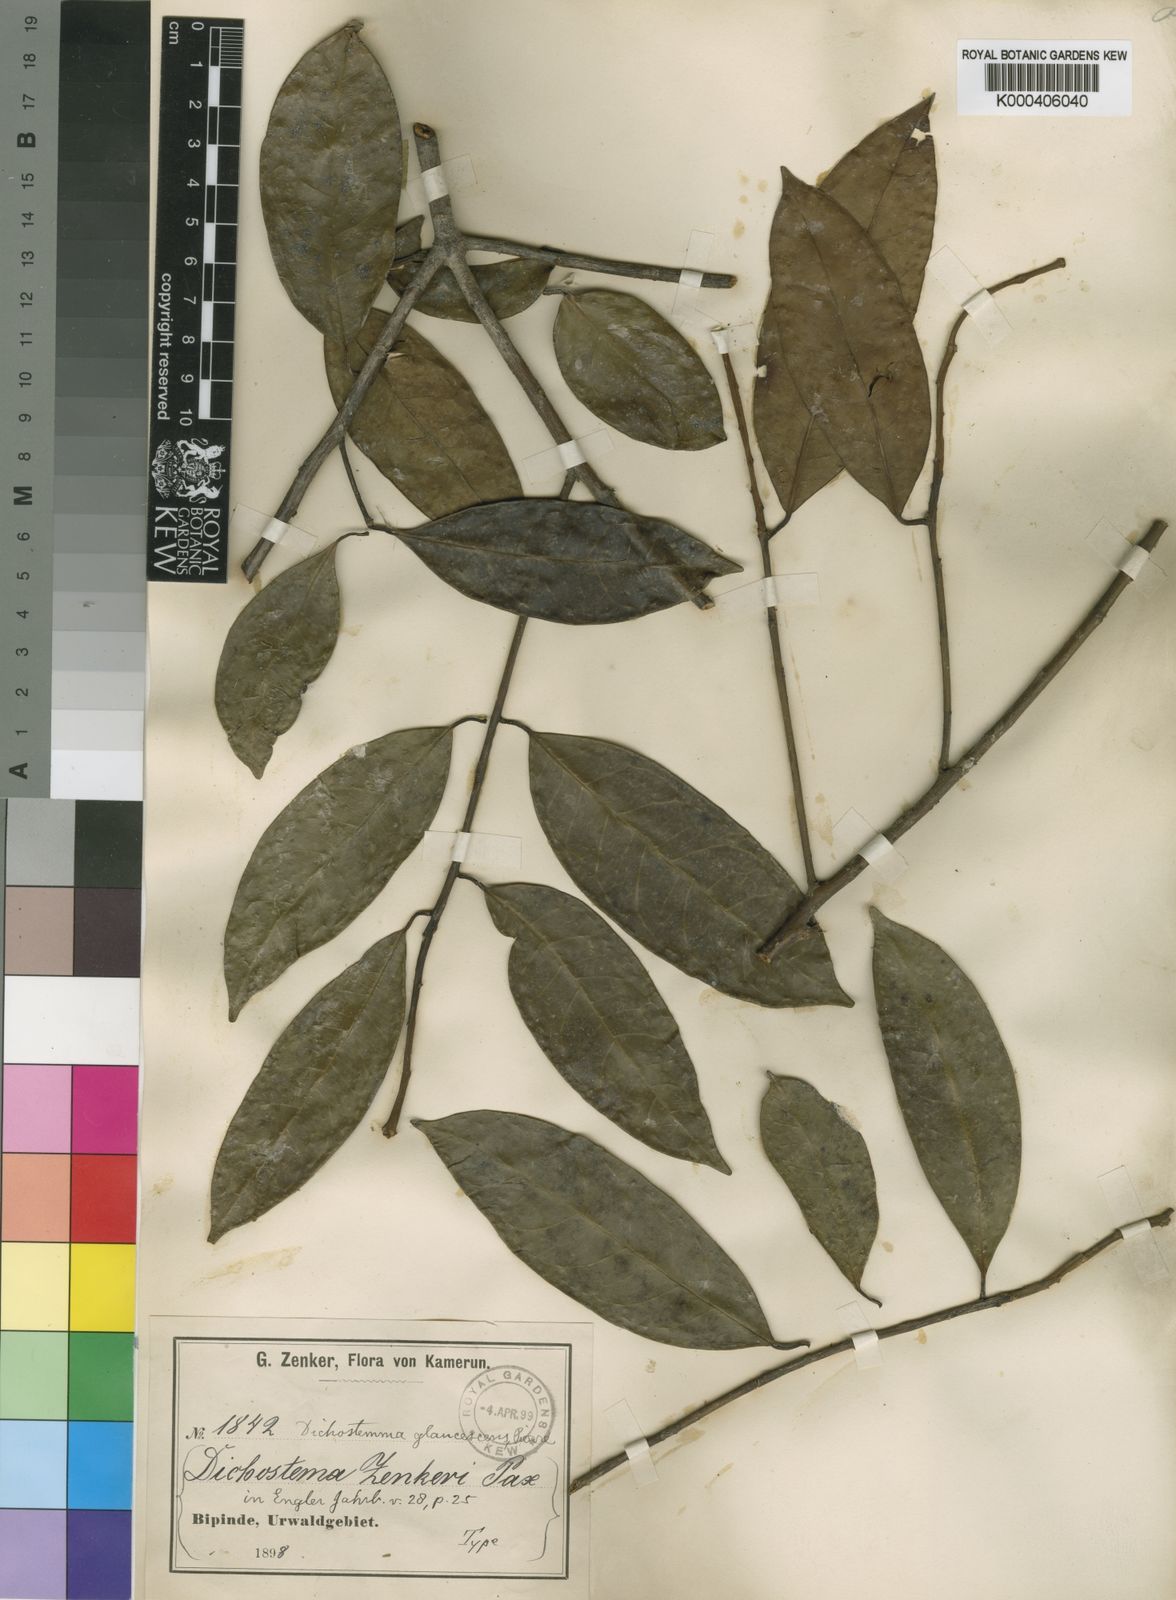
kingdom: Plantae
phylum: Tracheophyta
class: Magnoliopsida
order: Malpighiales
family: Euphorbiaceae
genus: Dichostemma
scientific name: Dichostemma
